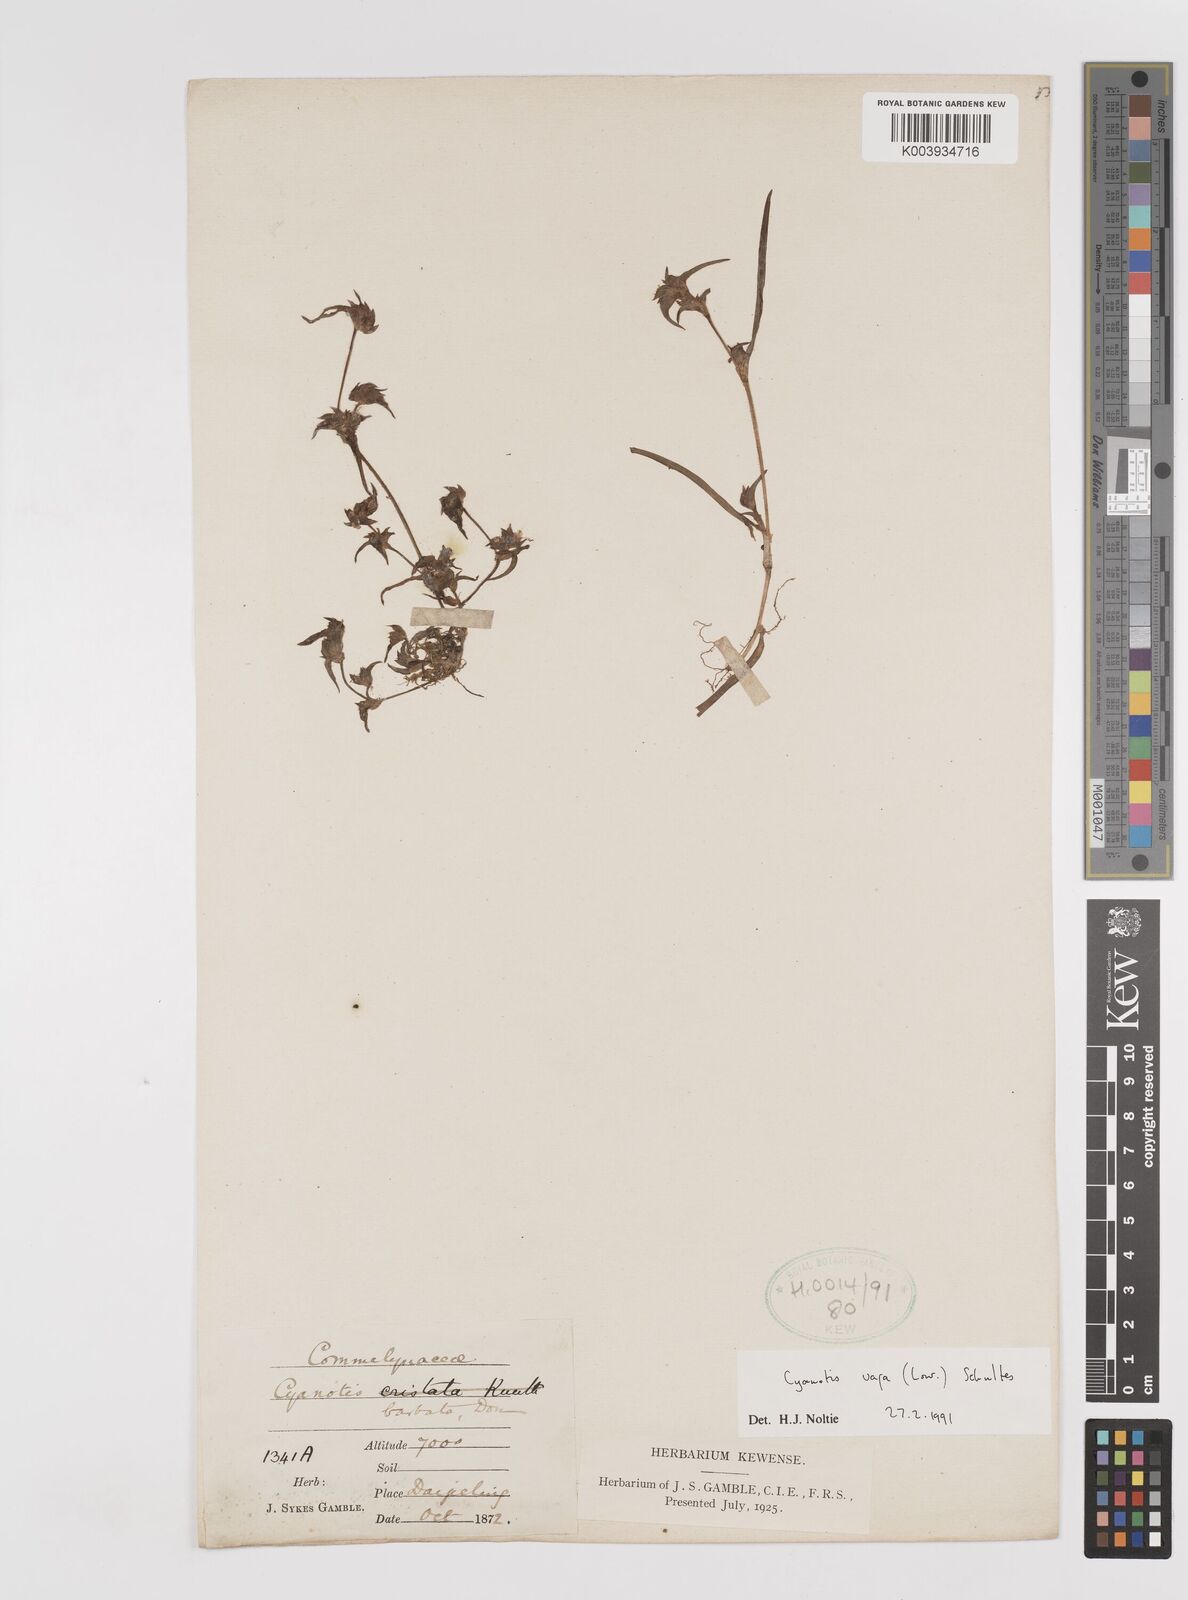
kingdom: Plantae
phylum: Tracheophyta
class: Liliopsida
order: Commelinales
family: Commelinaceae
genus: Cyanotis
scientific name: Cyanotis vaga
